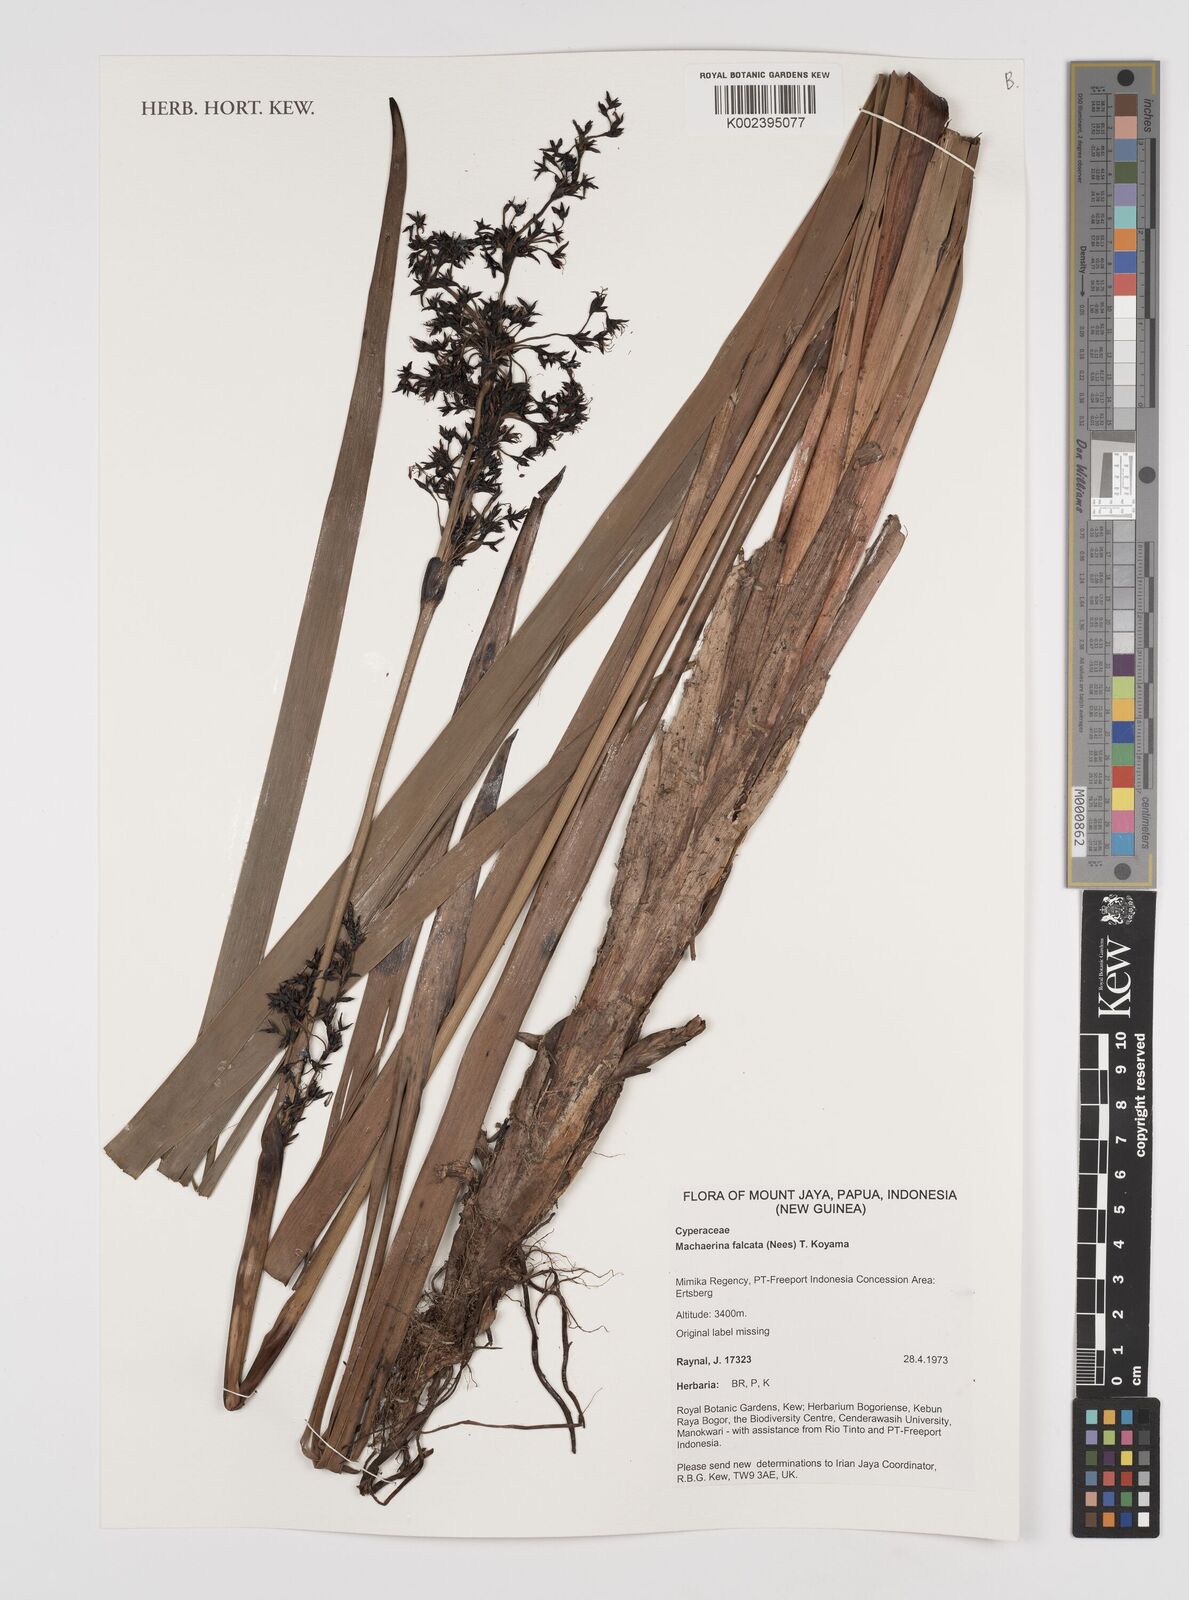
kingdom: Plantae
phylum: Tracheophyta
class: Liliopsida
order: Poales
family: Cyperaceae
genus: Machaerina
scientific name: Machaerina falcata
